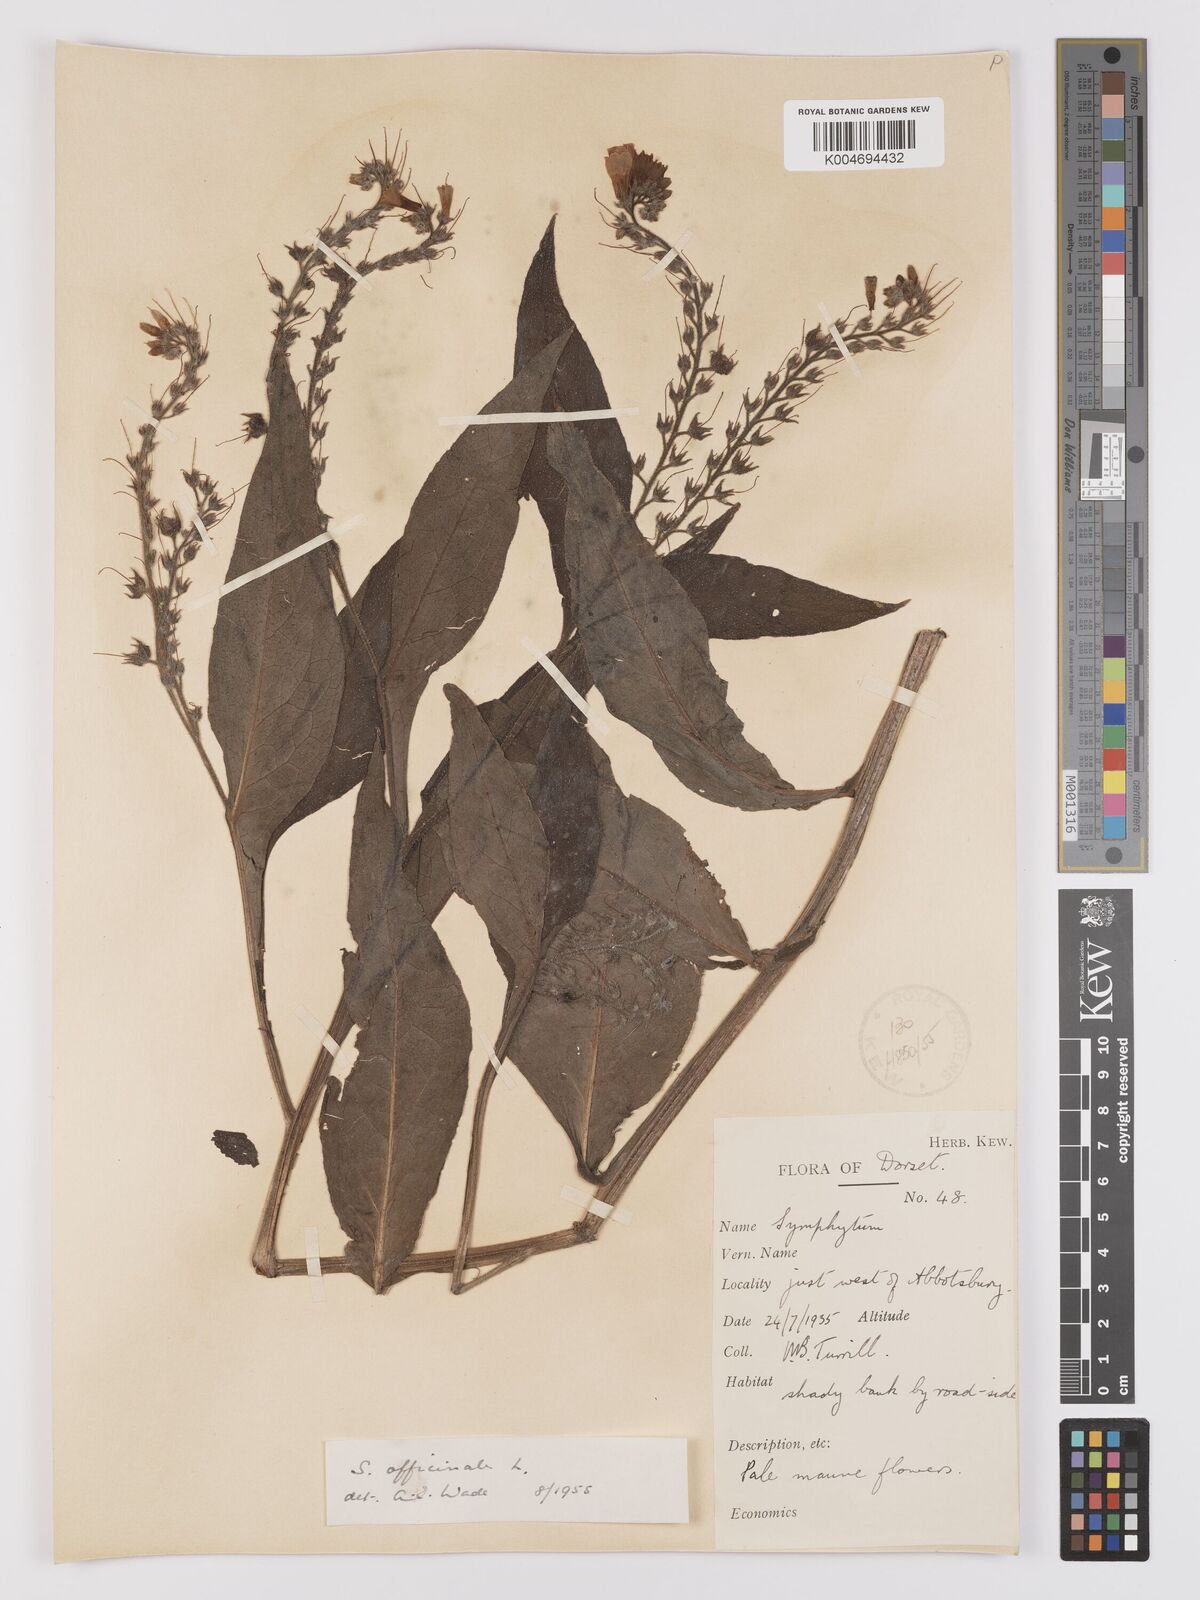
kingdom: Plantae
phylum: Tracheophyta
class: Magnoliopsida
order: Boraginales
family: Boraginaceae
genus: Symphytum
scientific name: Symphytum officinale
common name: Common comfrey
